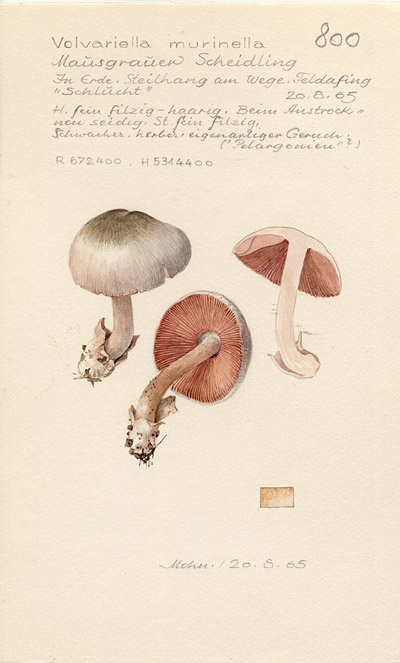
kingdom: Fungi
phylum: Basidiomycota
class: Agaricomycetes
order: Agaricales
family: Pluteaceae
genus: Volvariella
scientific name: Volvariella murinella
